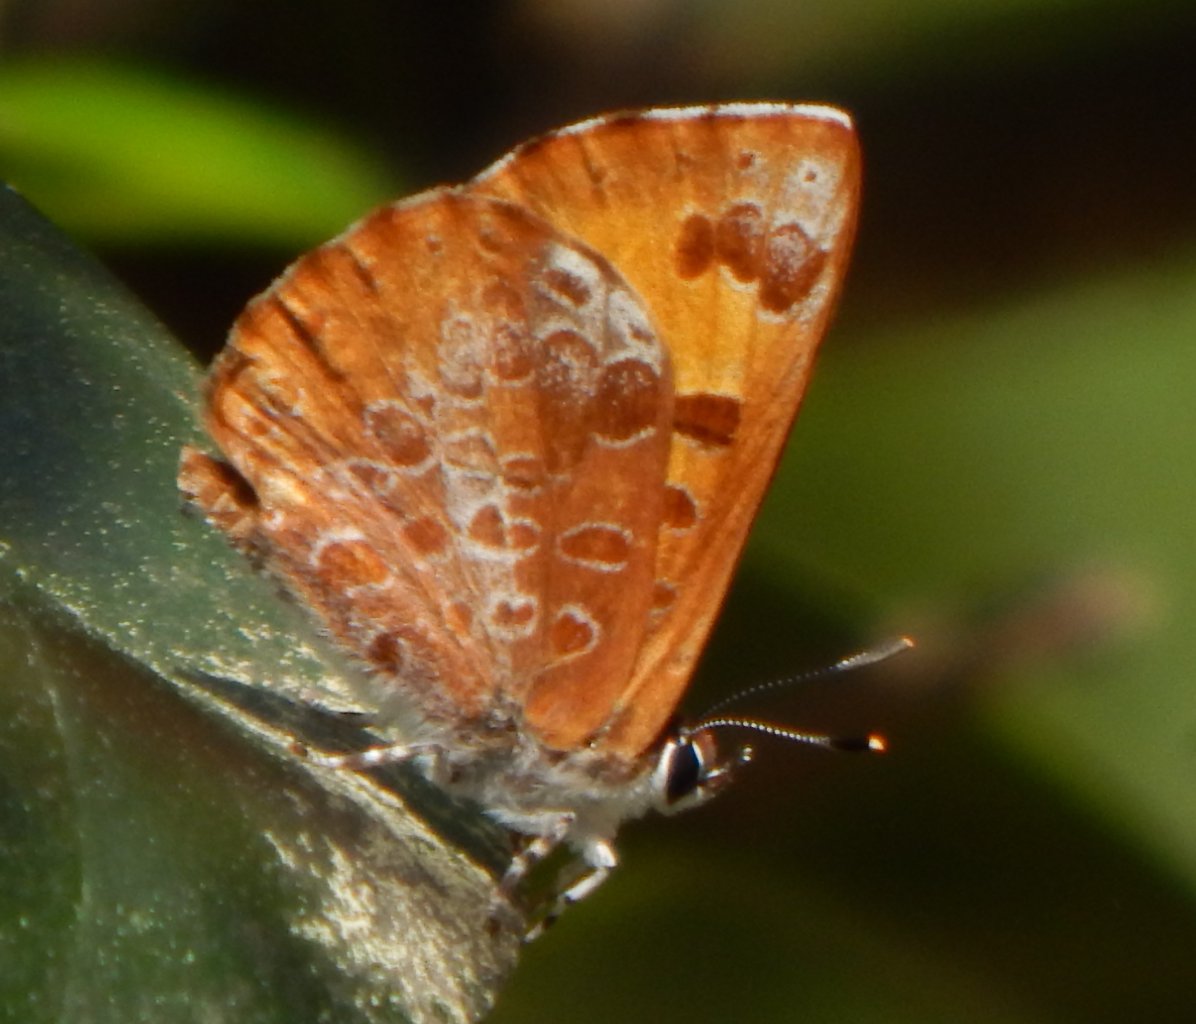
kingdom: Animalia
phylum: Arthropoda
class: Insecta
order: Lepidoptera
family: Lycaenidae
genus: Feniseca
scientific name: Feniseca tarquinius
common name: Harvester
